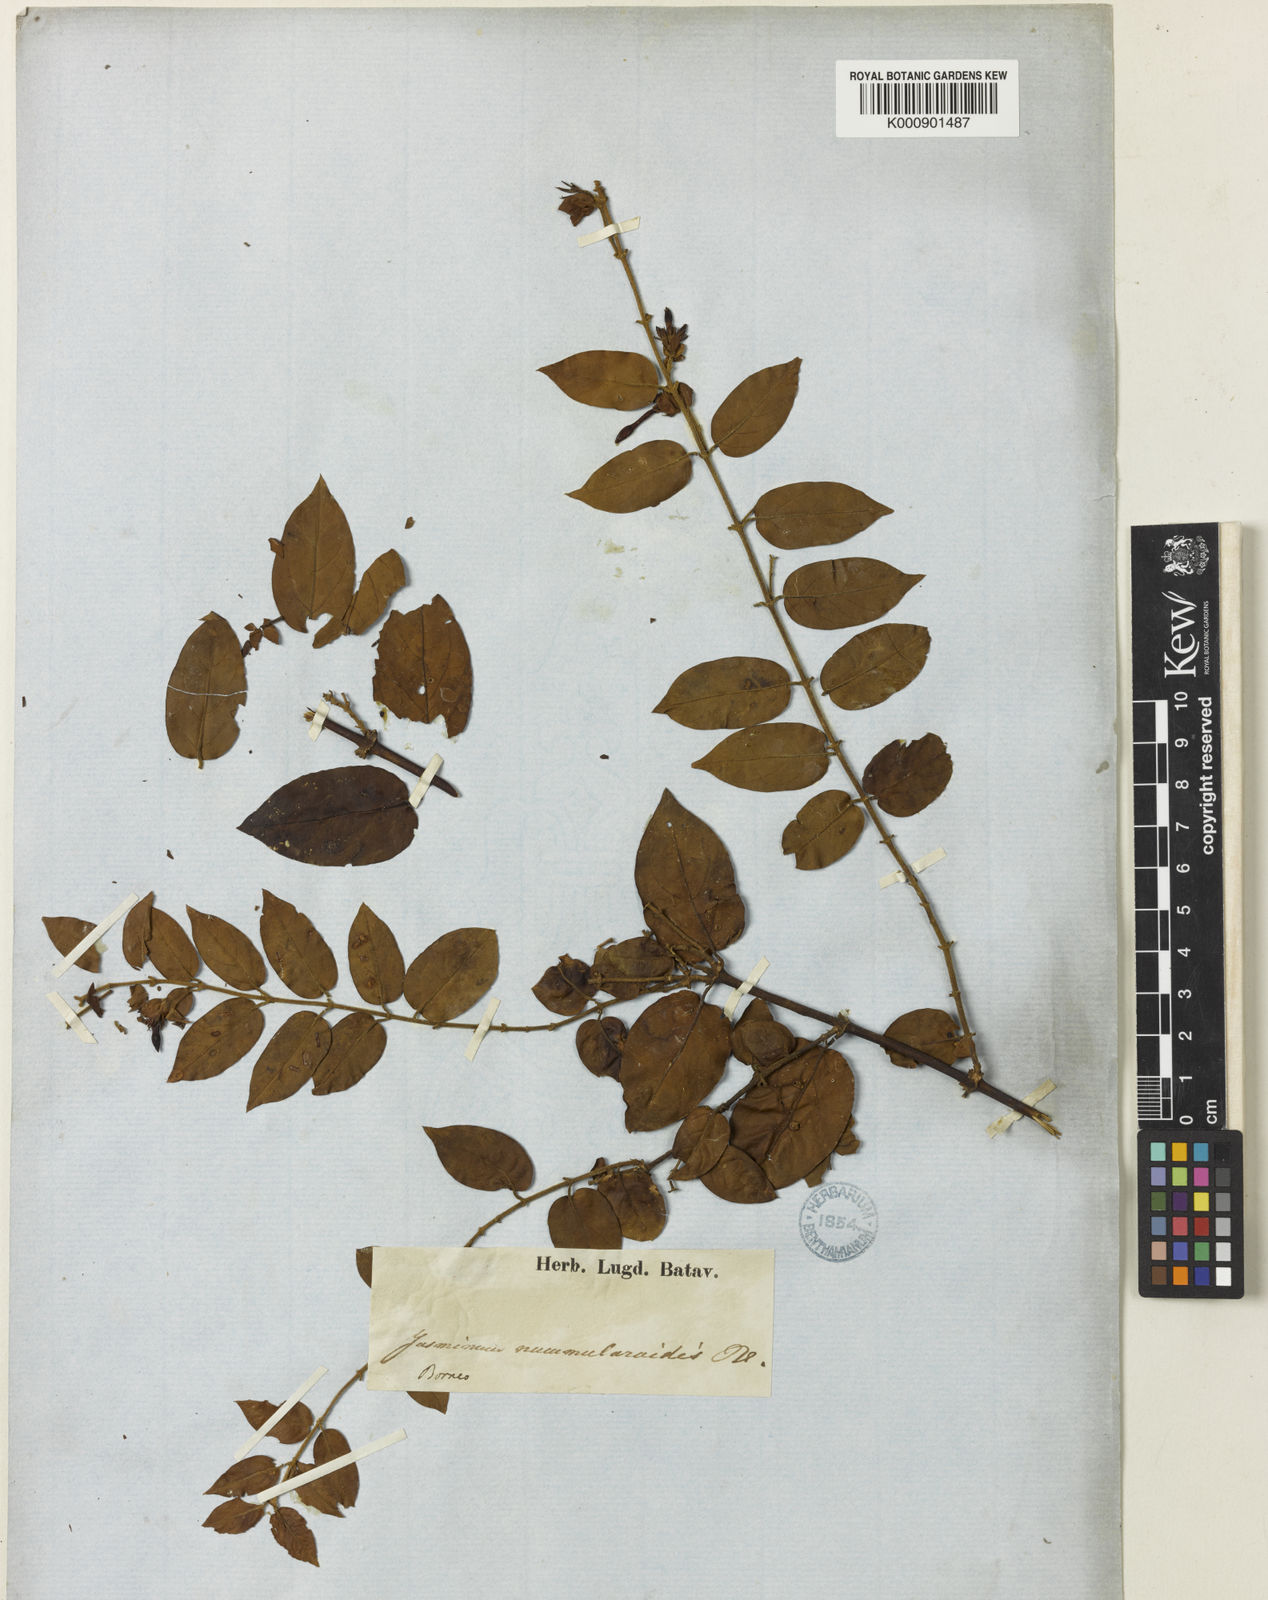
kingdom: Plantae
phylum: Tracheophyta
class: Magnoliopsida
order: Lamiales
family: Oleaceae
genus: Jasminum
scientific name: Jasminum elongatum
